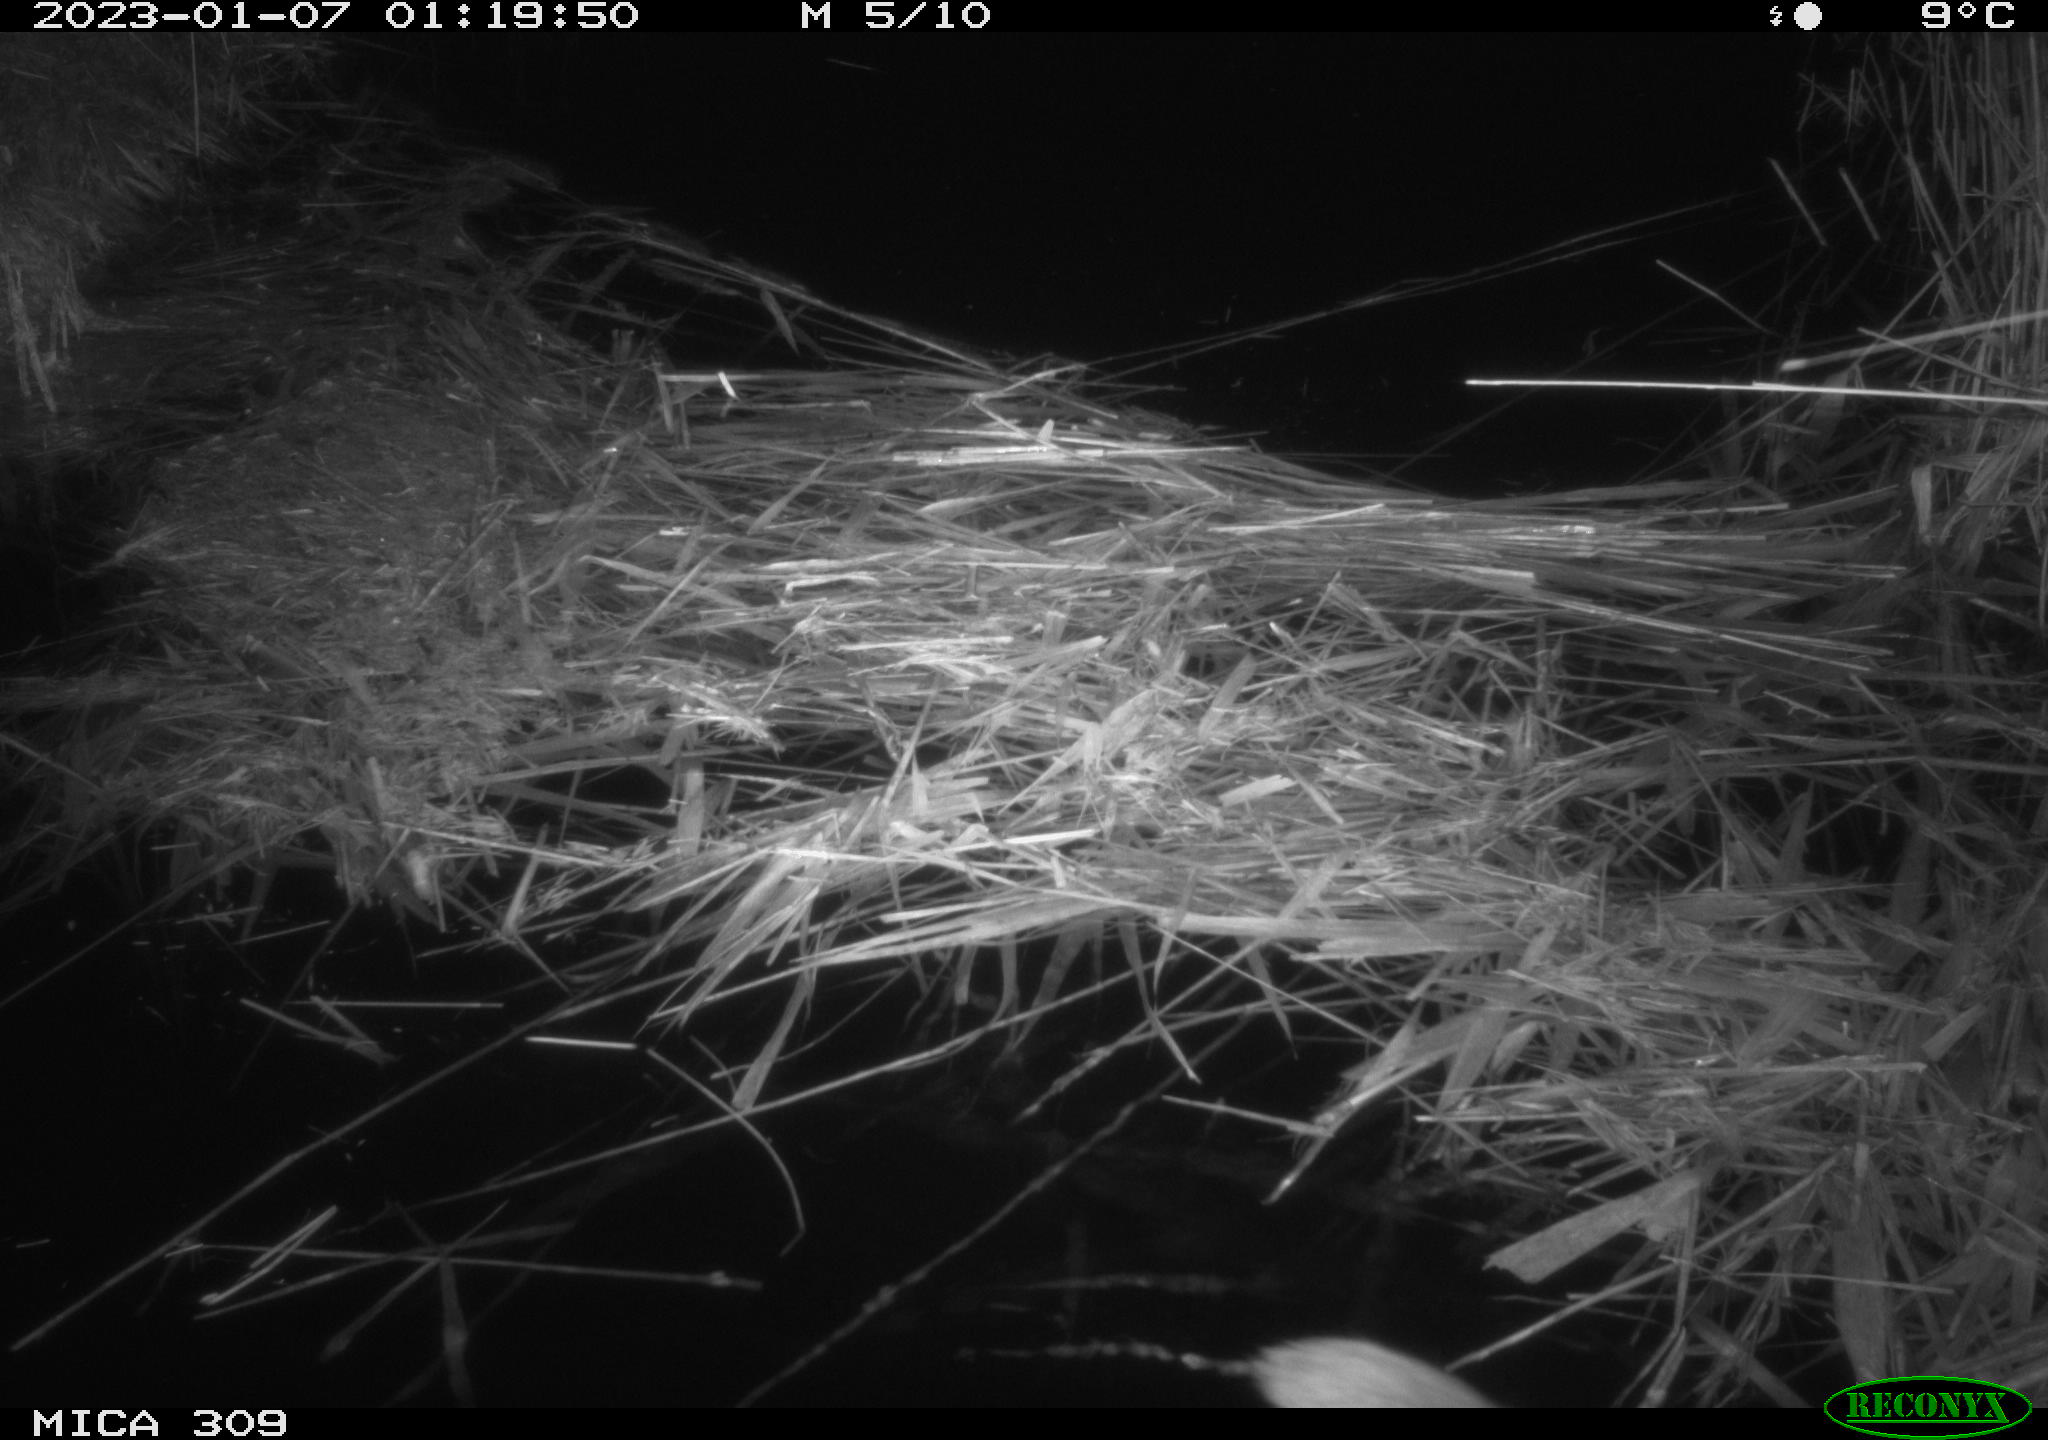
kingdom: Animalia
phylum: Chordata
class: Mammalia
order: Rodentia
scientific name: Rodentia
